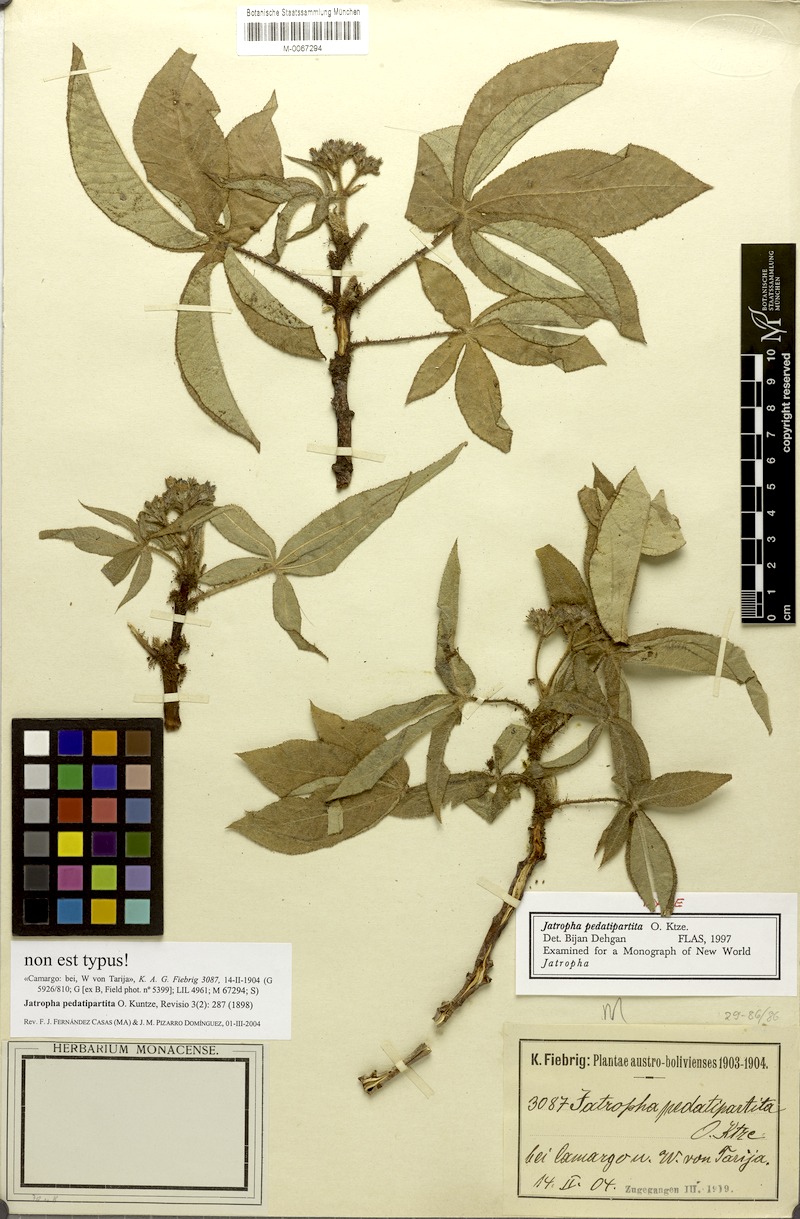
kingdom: Plantae
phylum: Tracheophyta
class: Magnoliopsida
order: Malpighiales
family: Euphorbiaceae
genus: Jatropha
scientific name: Jatropha clavuligera
